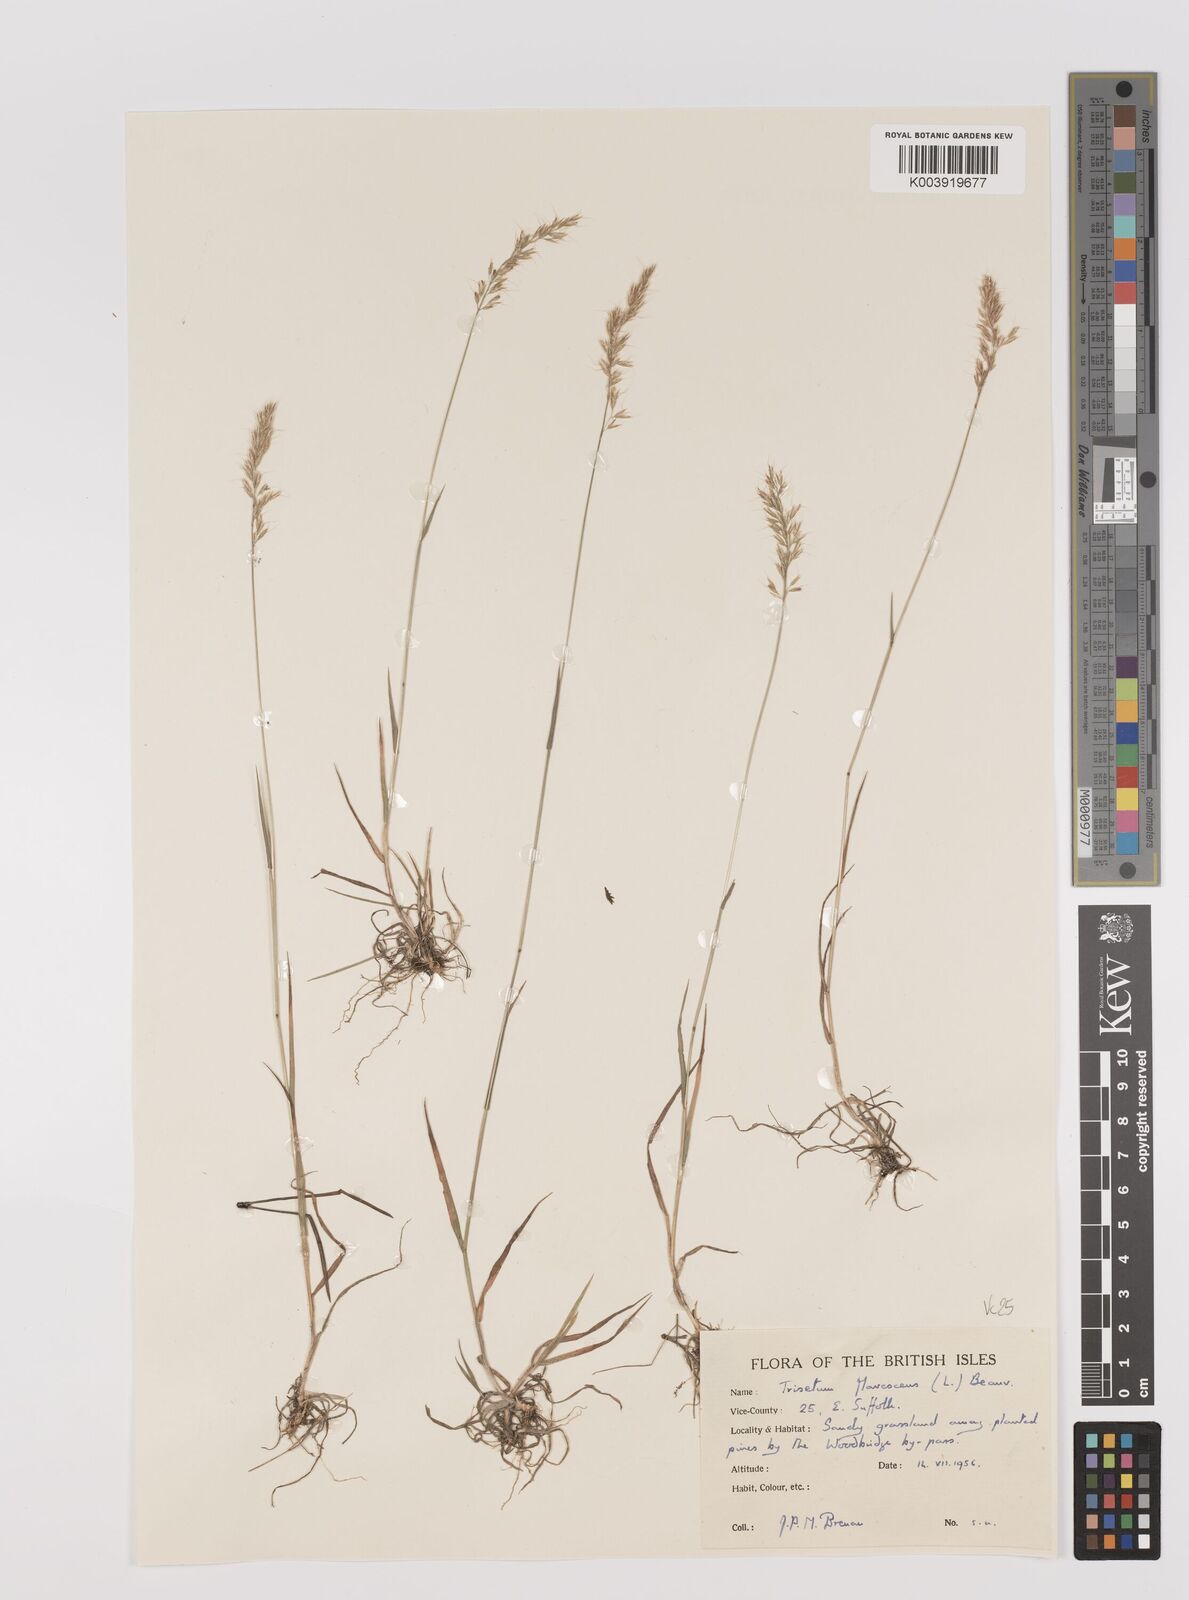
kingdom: Plantae
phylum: Tracheophyta
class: Liliopsida
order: Poales
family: Poaceae
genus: Trisetum
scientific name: Trisetum flavescens
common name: Yellow oat-grass
